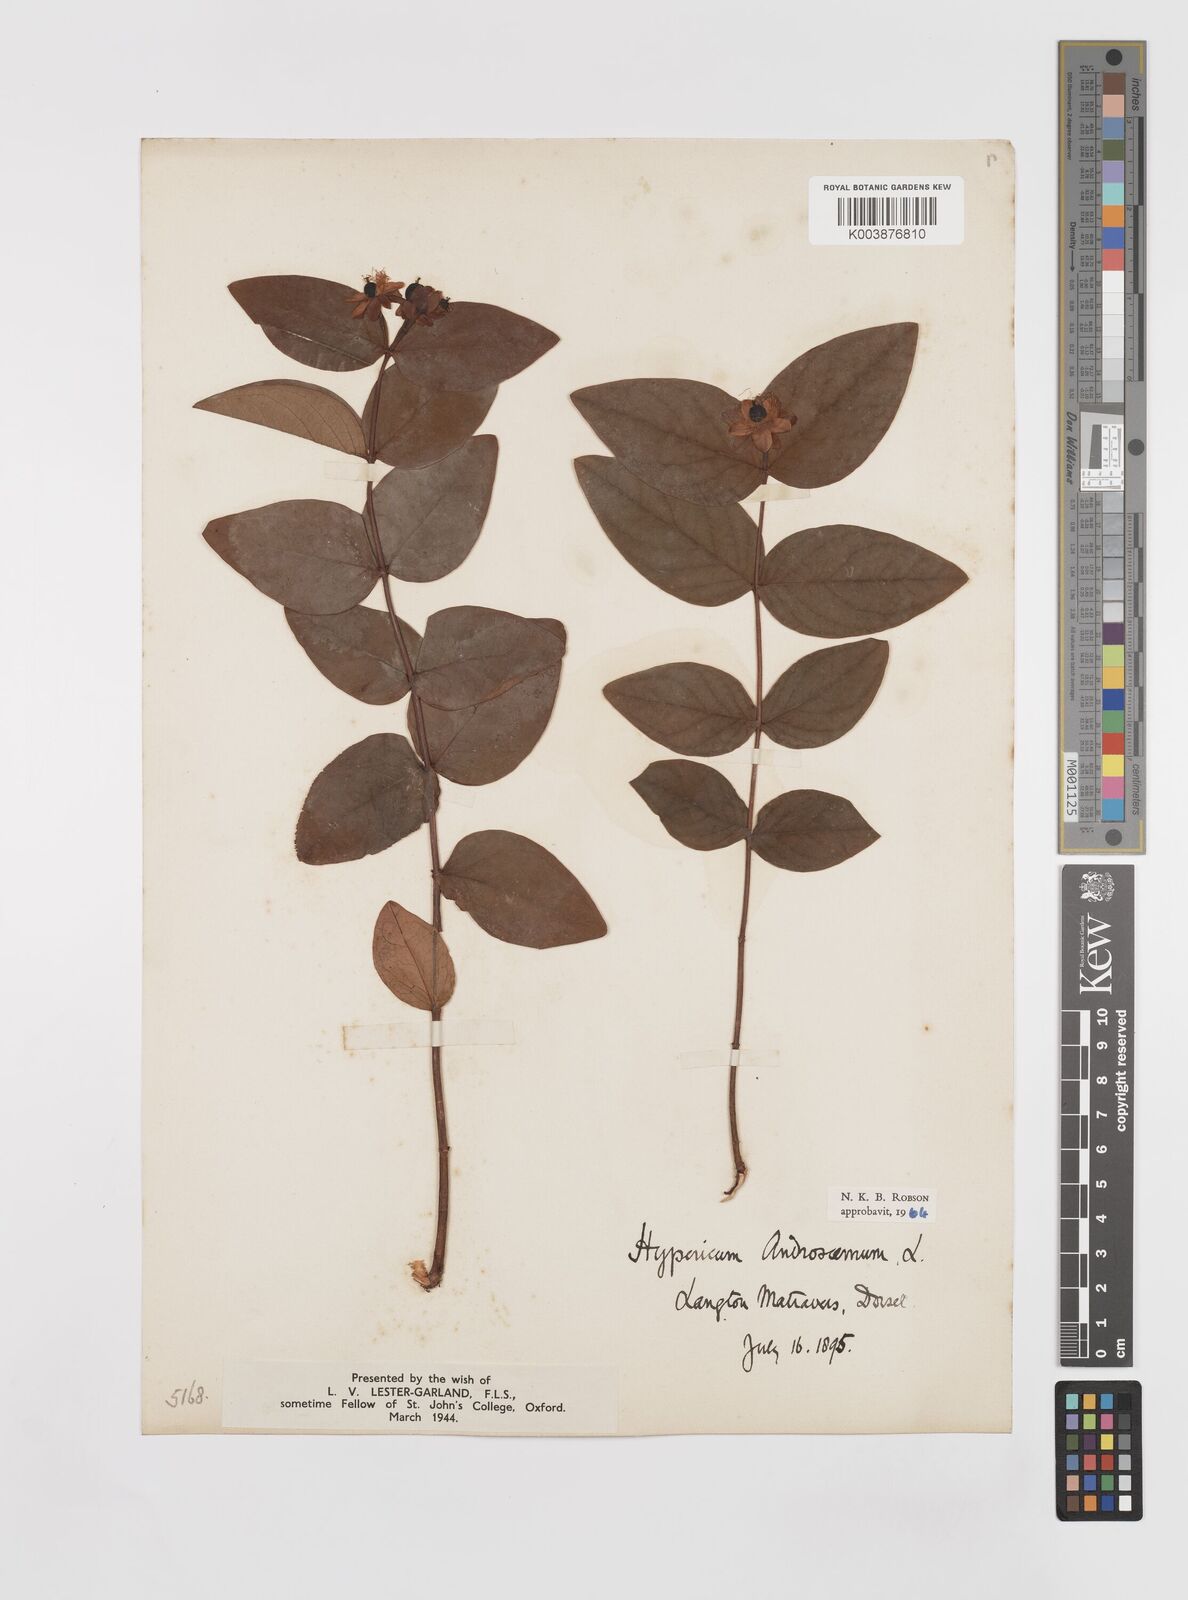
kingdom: Plantae
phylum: Tracheophyta
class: Magnoliopsida
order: Malpighiales
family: Hypericaceae
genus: Hypericum
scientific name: Hypericum androsaemum
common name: Sweet-amber
